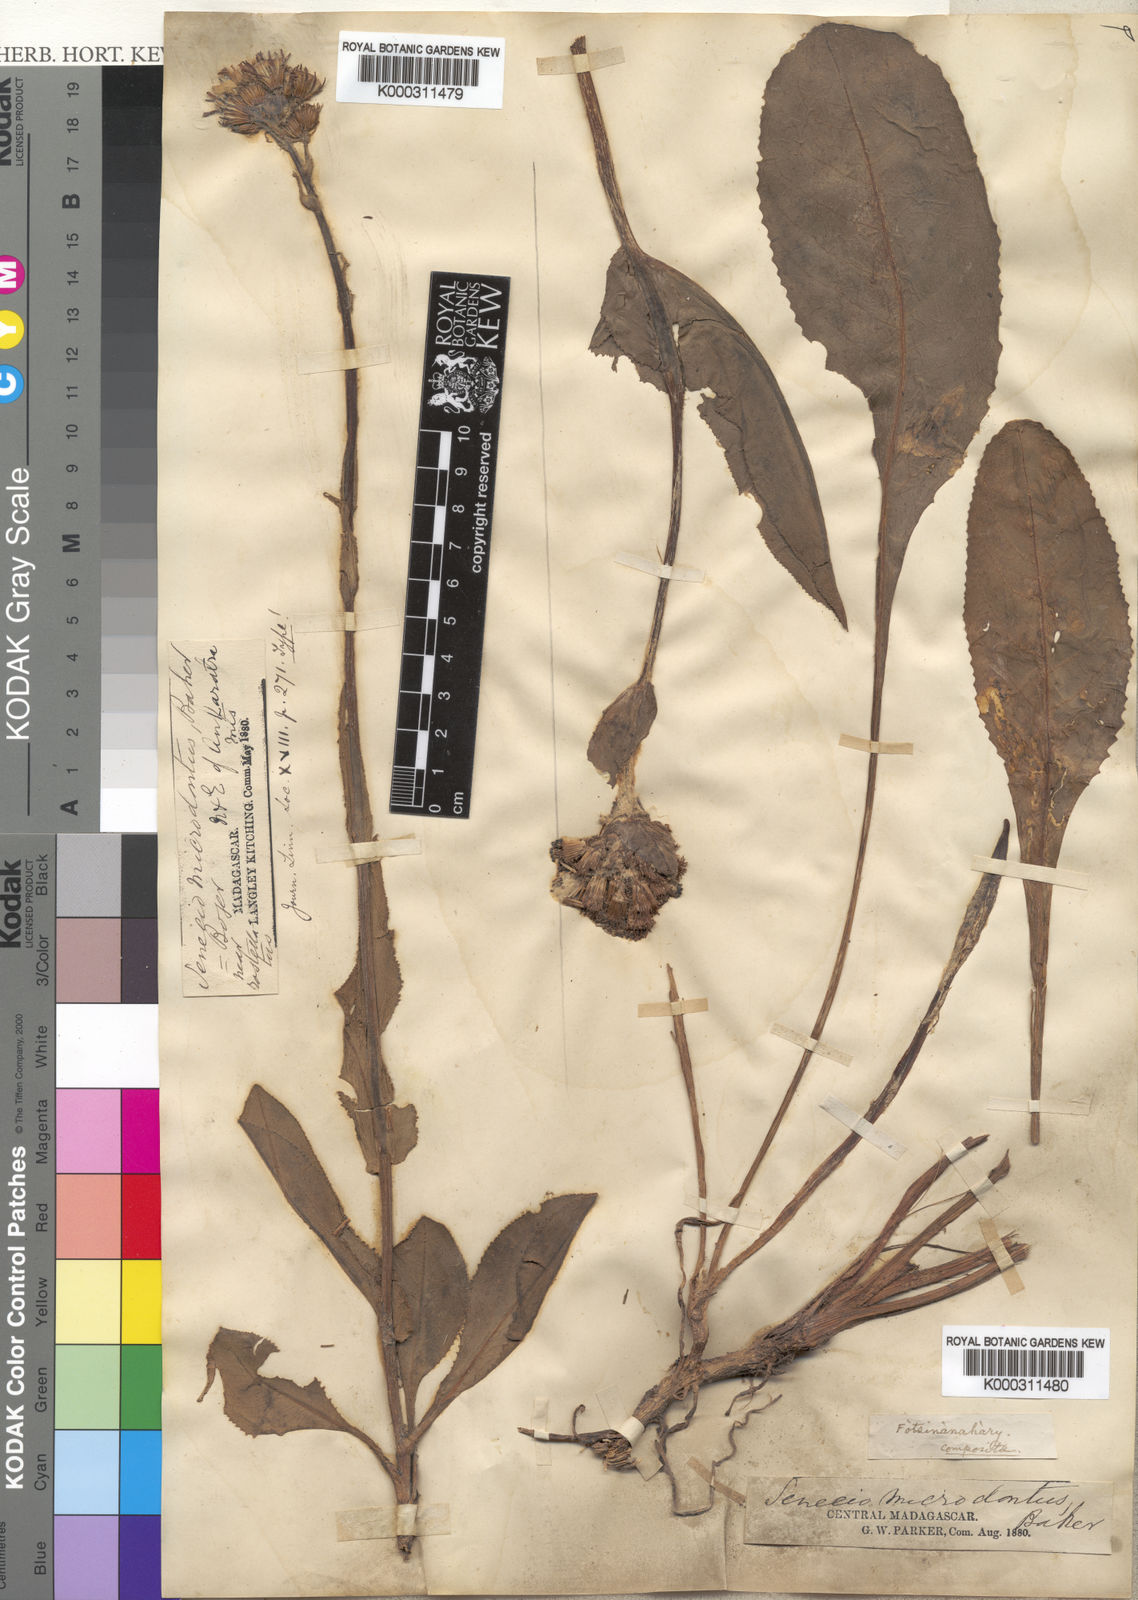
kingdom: Plantae
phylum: Tracheophyta
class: Magnoliopsida
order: Asterales
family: Asteraceae
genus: Senecio
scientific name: Senecio adscendens
